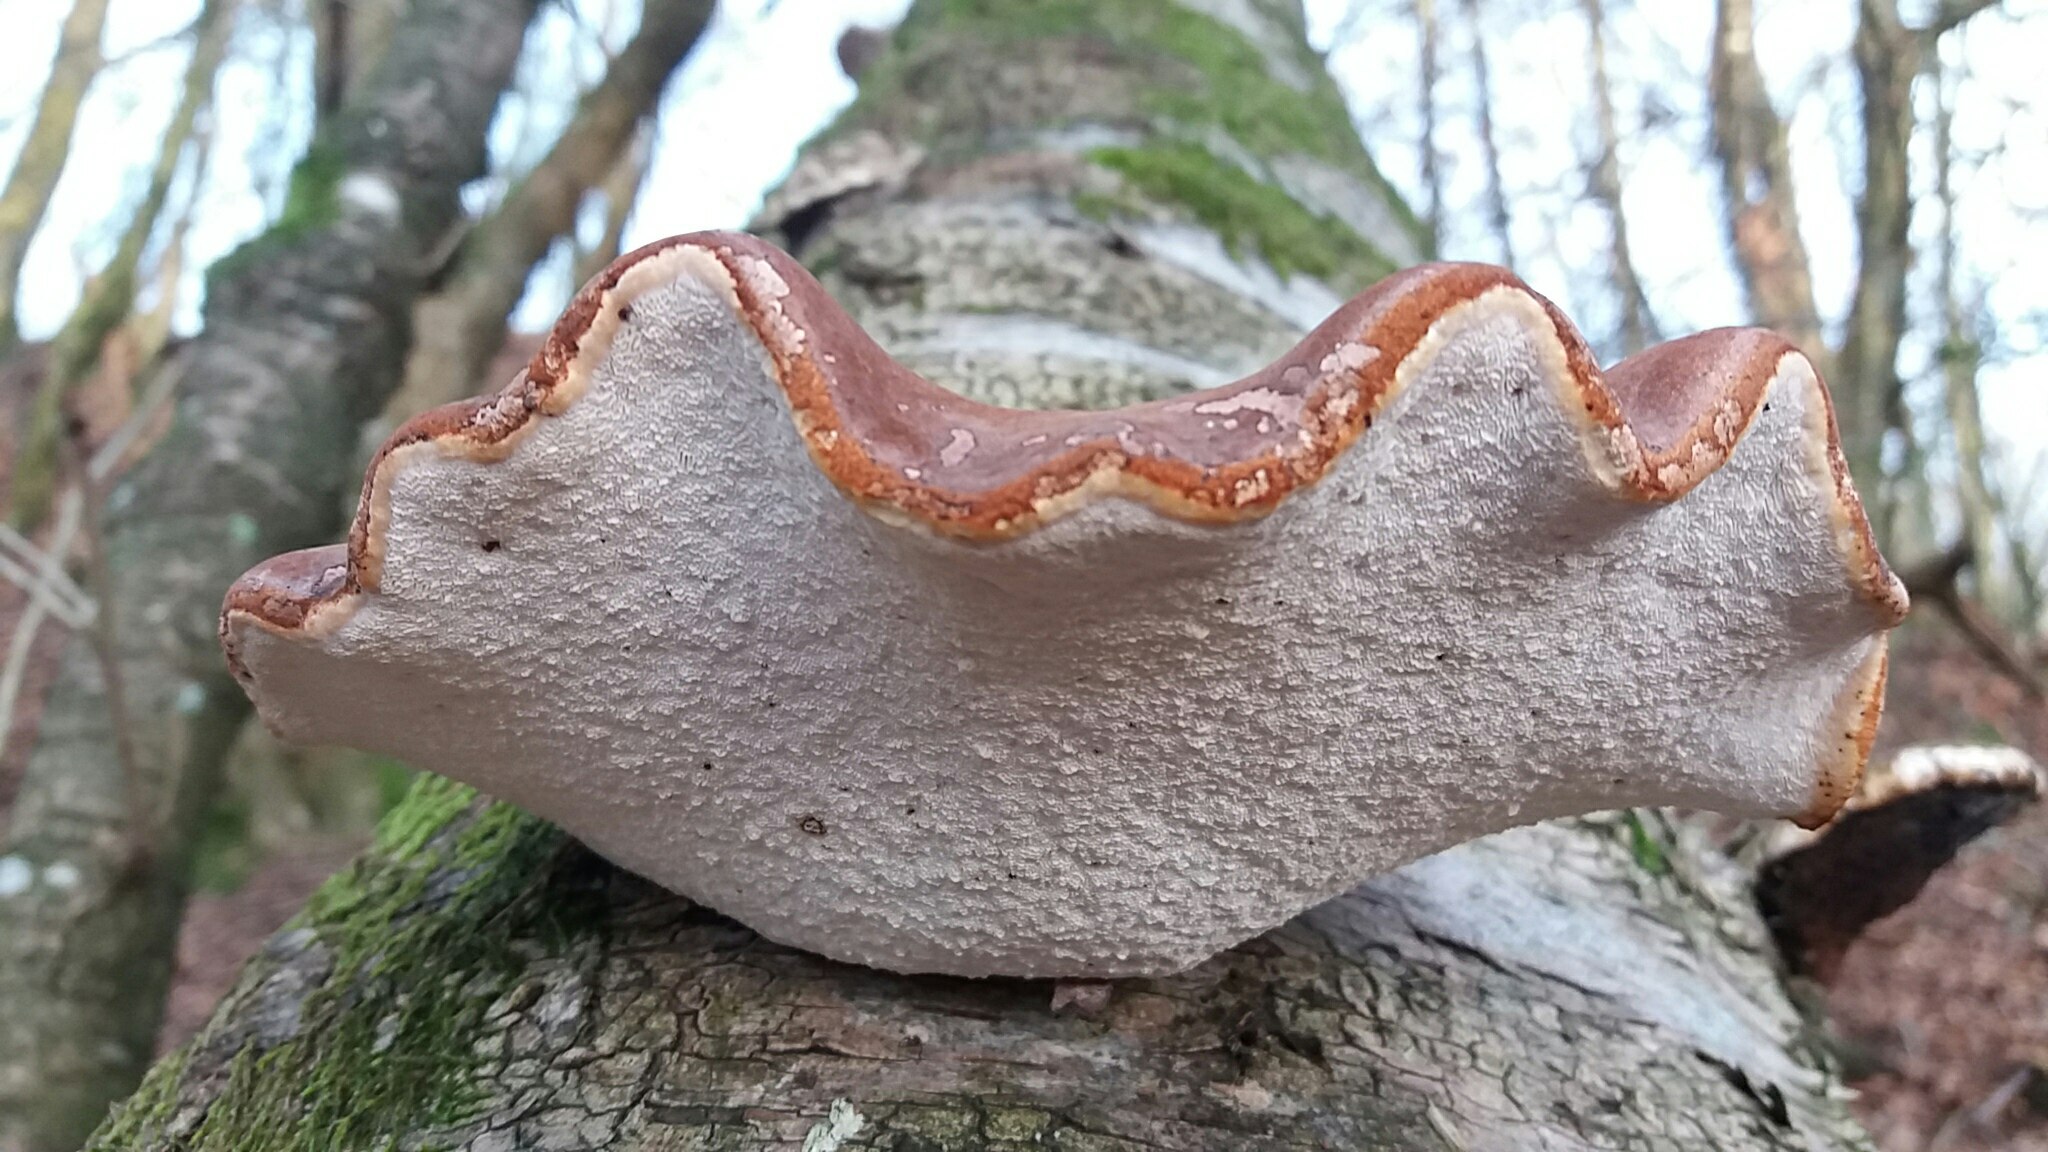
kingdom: Fungi
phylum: Basidiomycota
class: Agaricomycetes
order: Polyporales
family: Fomitopsidaceae
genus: Fomitopsis
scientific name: Fomitopsis betulina
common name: birkeporesvamp
